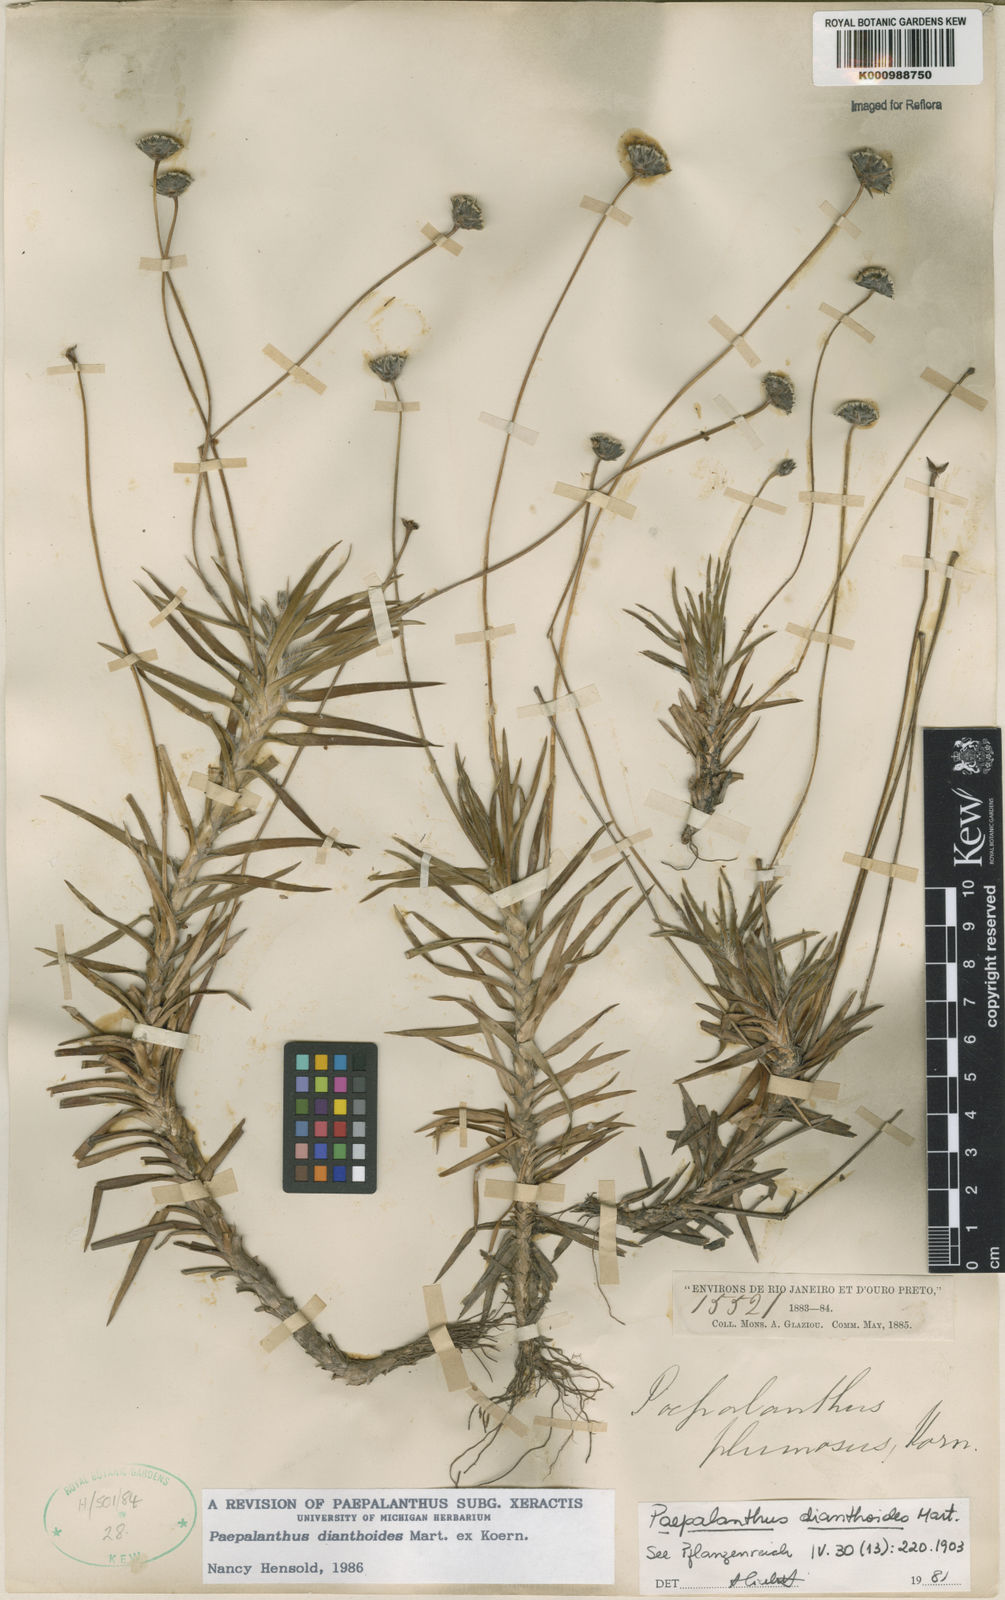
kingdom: Plantae
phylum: Tracheophyta
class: Liliopsida
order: Poales
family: Eriocaulaceae
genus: Paepalanthus
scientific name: Paepalanthus
